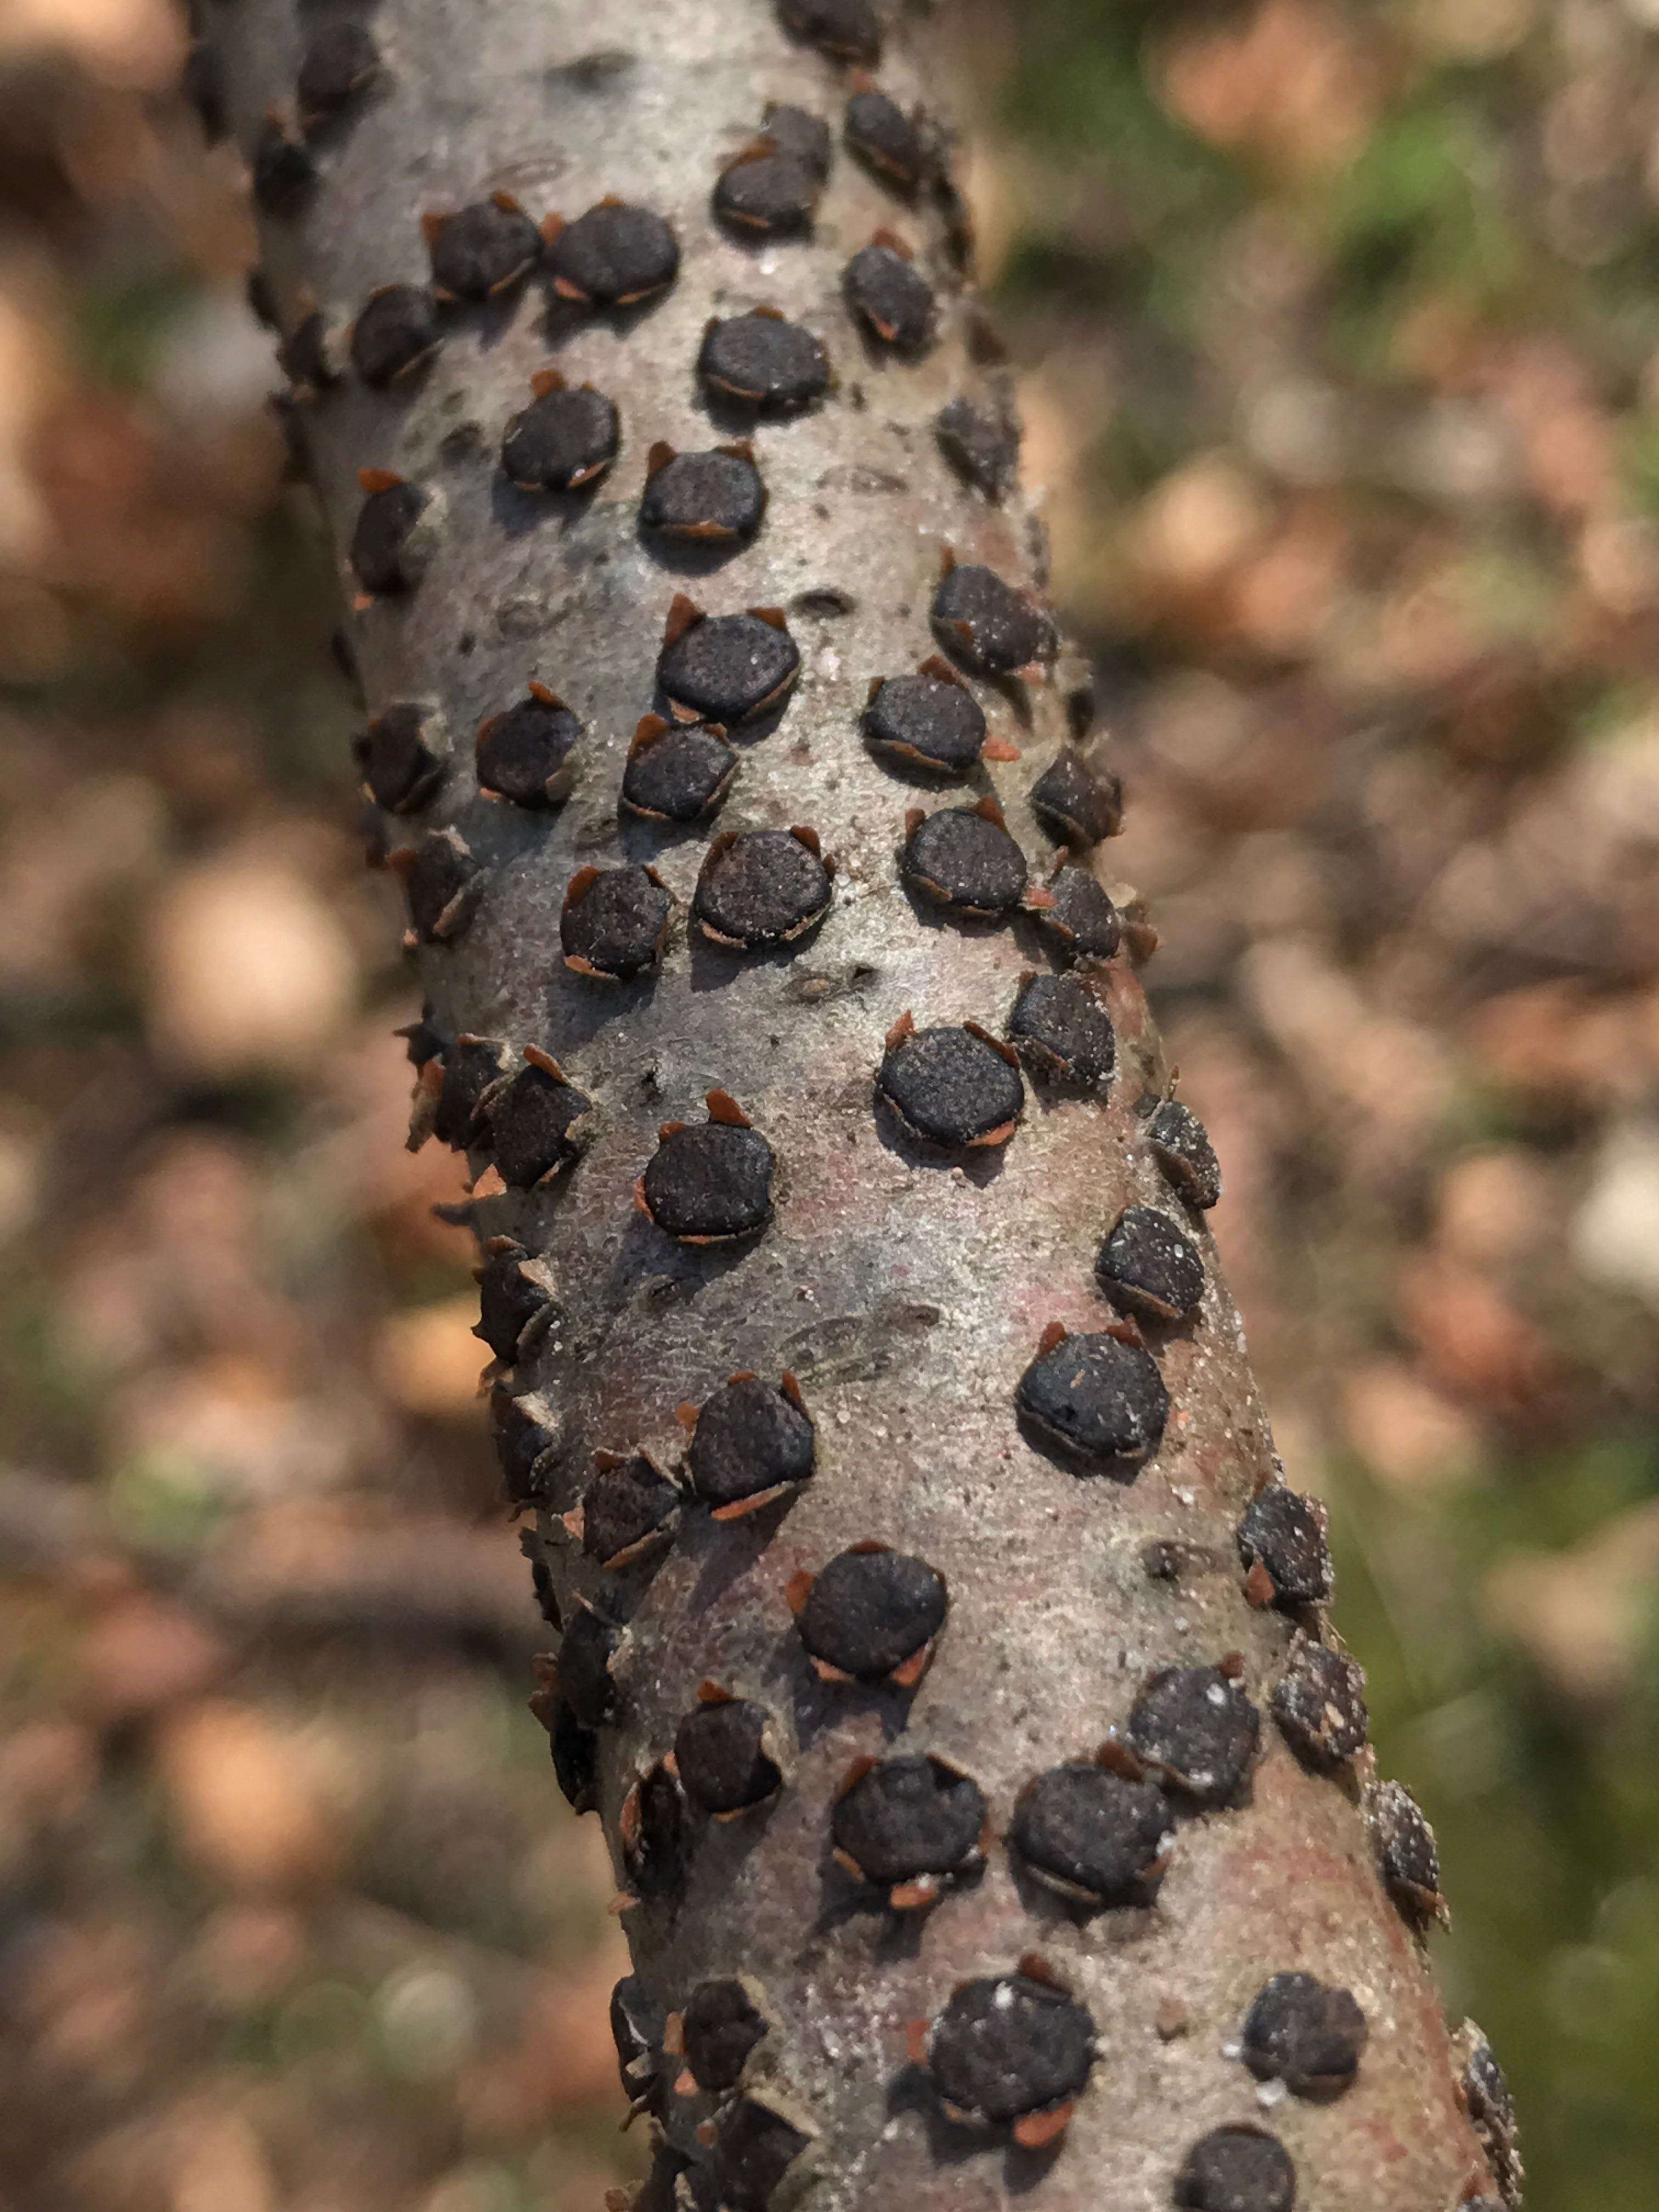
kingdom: Fungi
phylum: Ascomycota
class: Sordariomycetes
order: Xylariales
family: Diatrypaceae
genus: Diatrype
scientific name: Diatrype disciformis
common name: kant-kulskorpe
